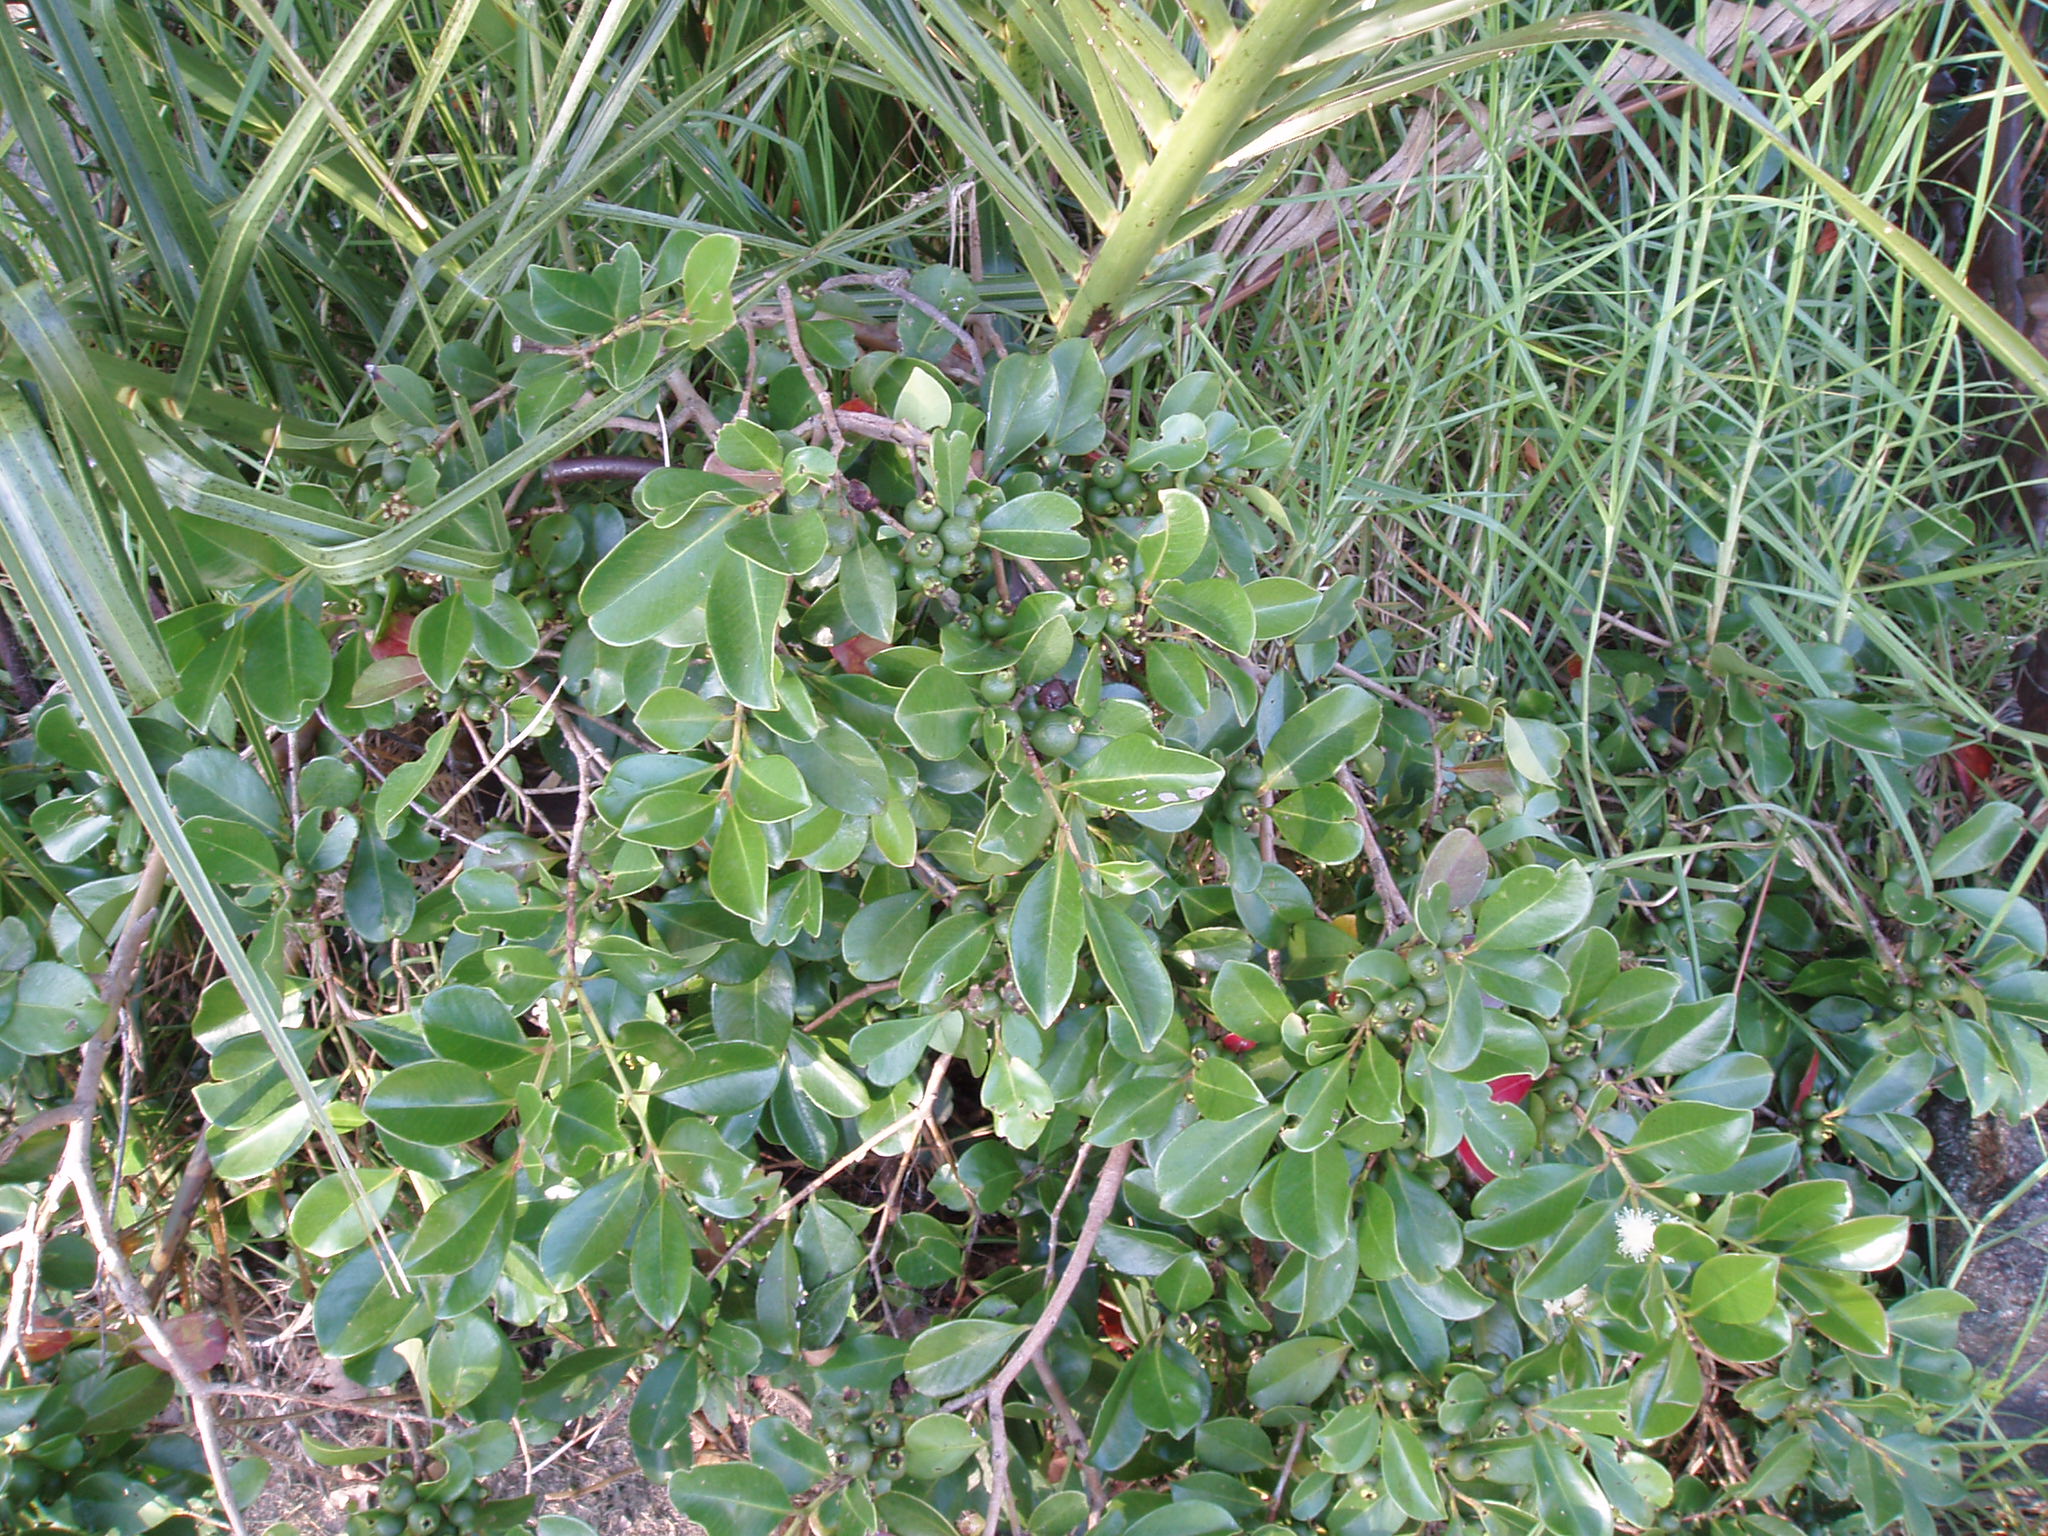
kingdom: Plantae
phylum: Tracheophyta
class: Magnoliopsida
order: Myrtales
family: Myrtaceae
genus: Psidium
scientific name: Psidium cattleianum
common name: Strawberry guava
